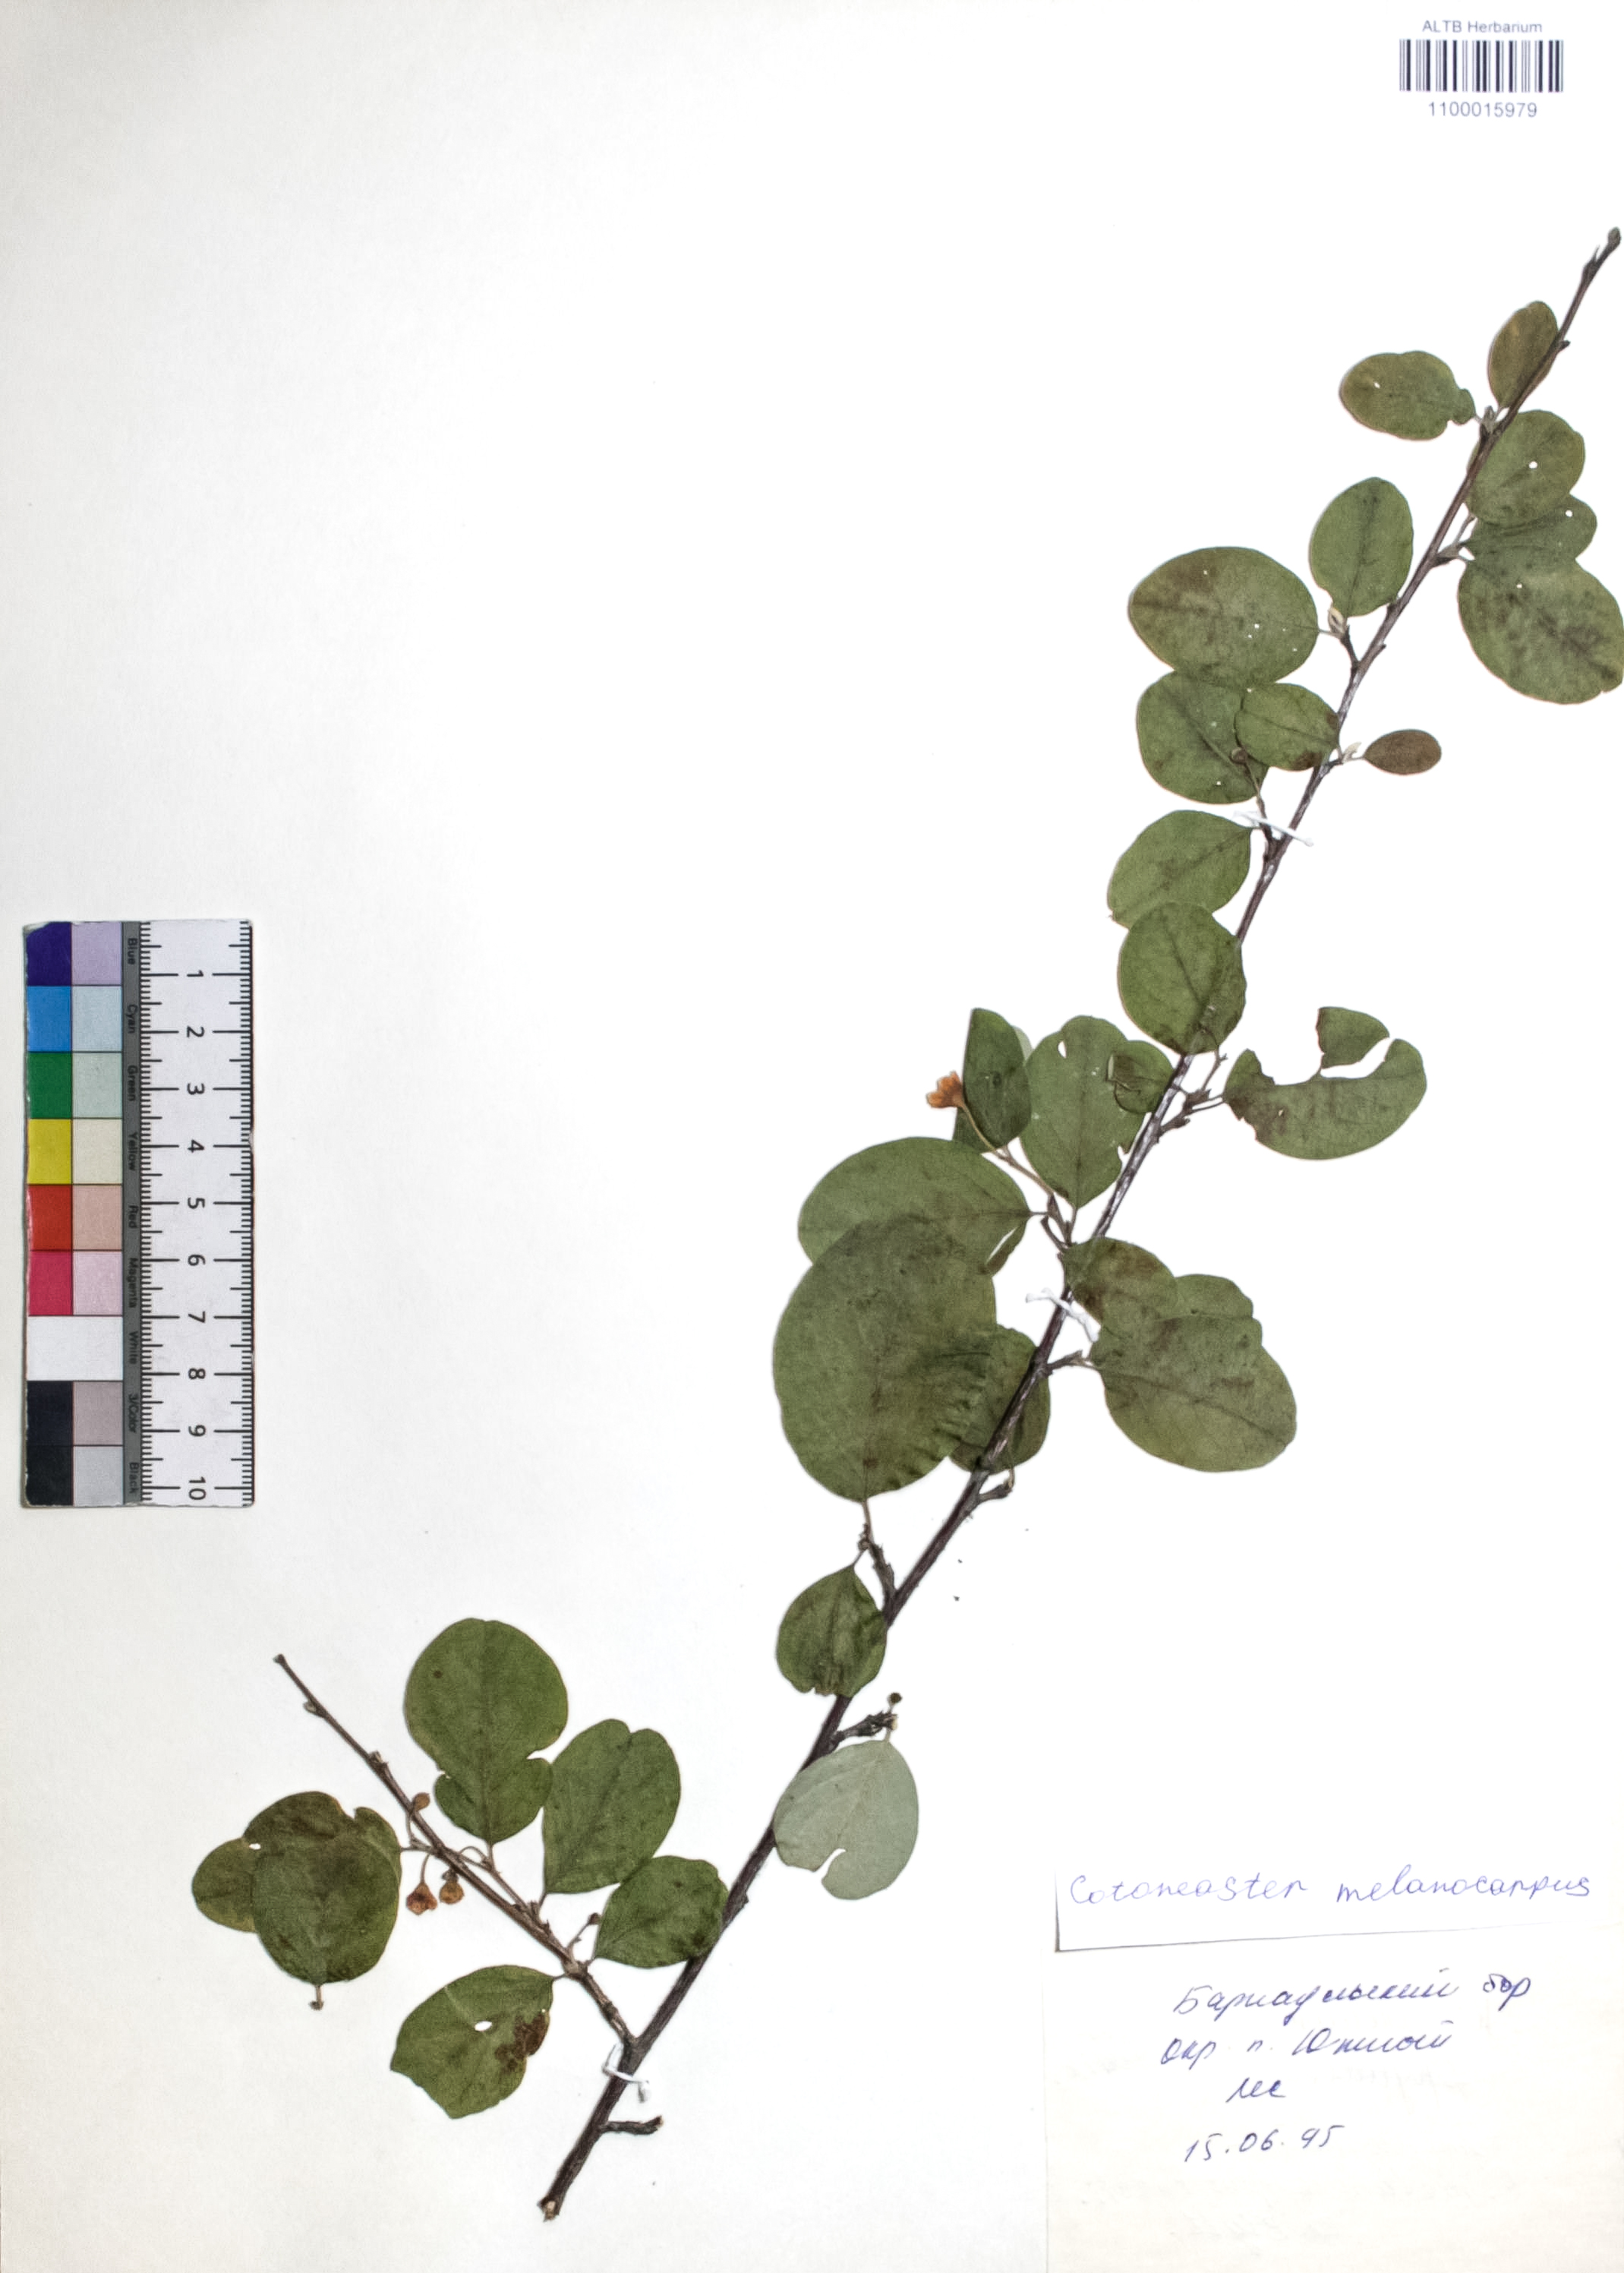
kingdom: Plantae
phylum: Tracheophyta
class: Magnoliopsida
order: Rosales
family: Rosaceae
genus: Cotoneaster
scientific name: Cotoneaster niger
